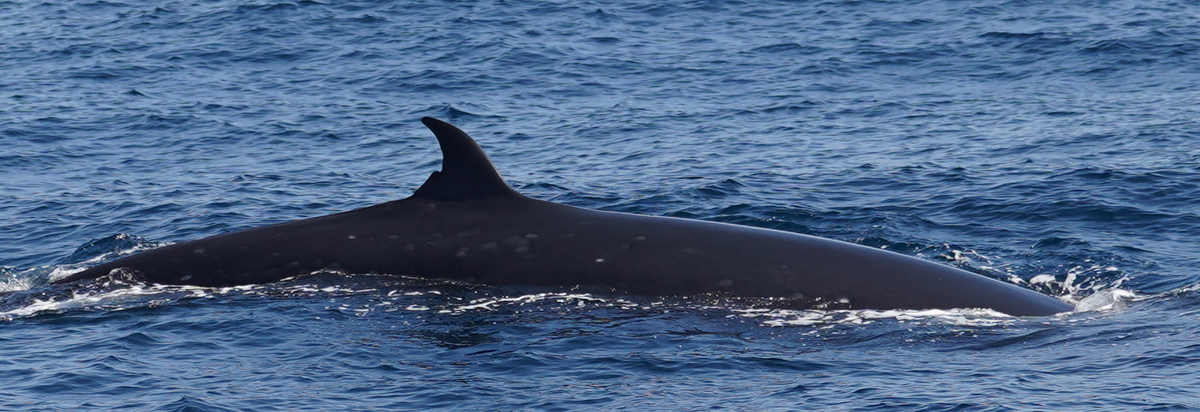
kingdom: Animalia
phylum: Chordata
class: Mammalia
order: Cetacea
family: Balaenopteridae
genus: Balaenoptera
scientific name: Balaenoptera edeni
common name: Bryde's whale
